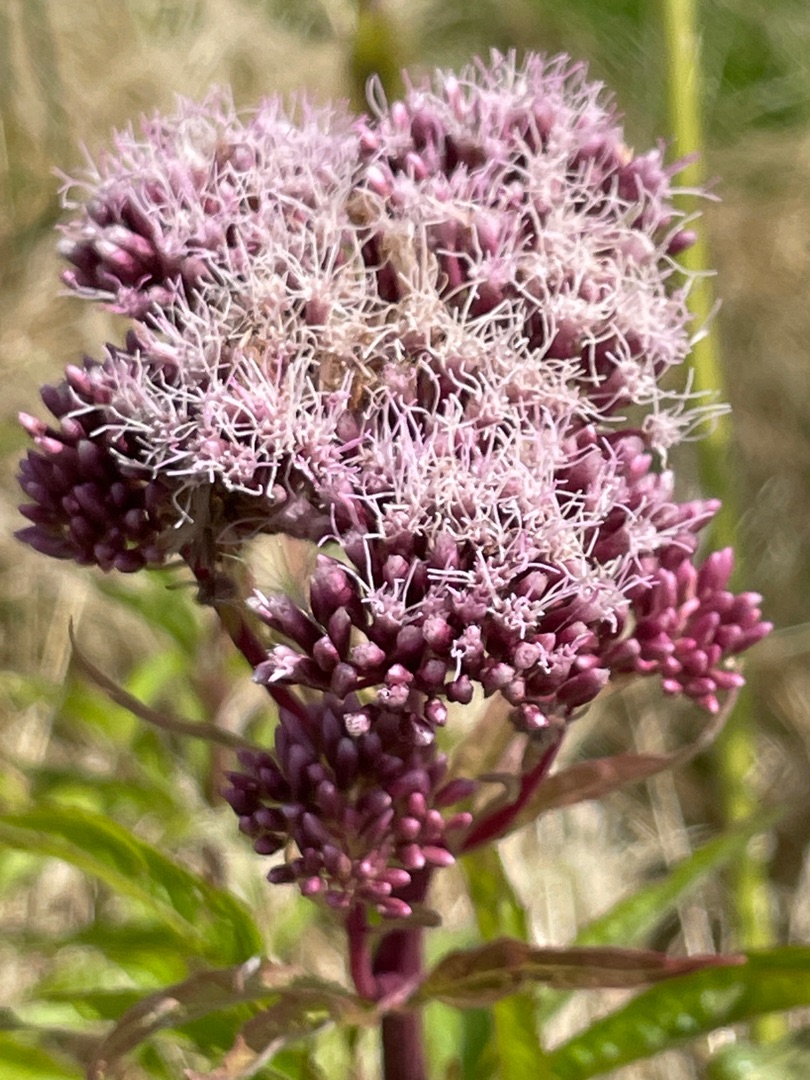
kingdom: Plantae
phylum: Tracheophyta
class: Magnoliopsida
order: Asterales
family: Asteraceae
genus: Eupatorium
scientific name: Eupatorium cannabinum
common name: Hjortetrøst
